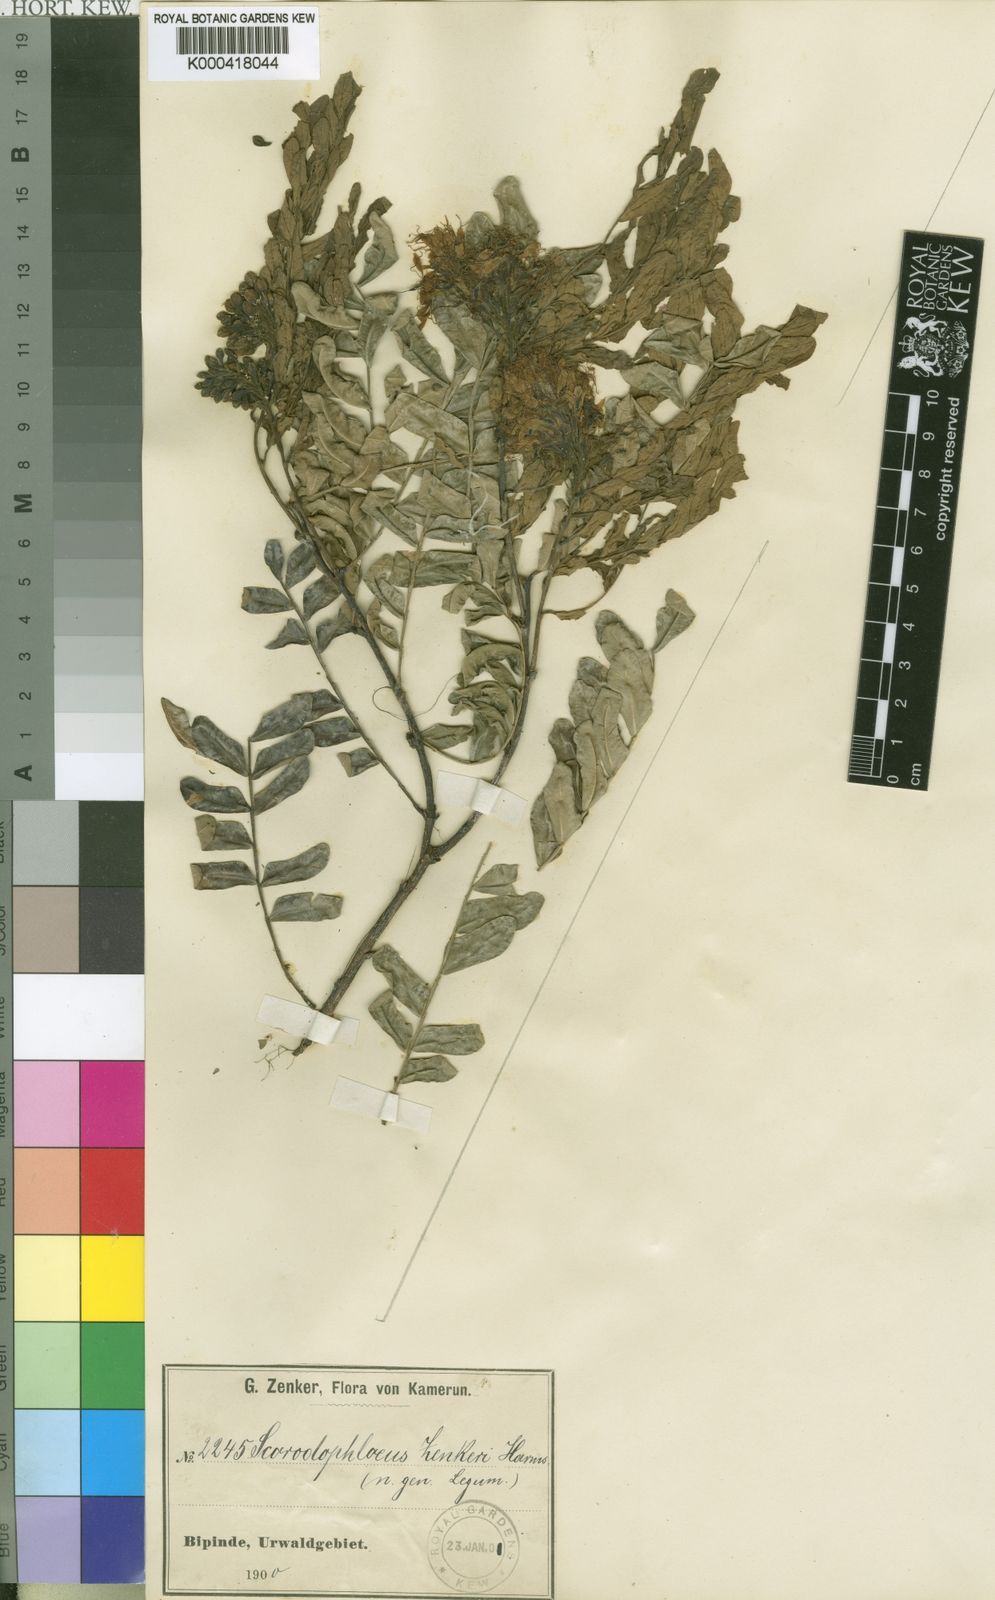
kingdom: Plantae
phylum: Tracheophyta
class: Magnoliopsida
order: Fabales
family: Fabaceae
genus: Scorodophloeus
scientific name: Scorodophloeus zenkeri
